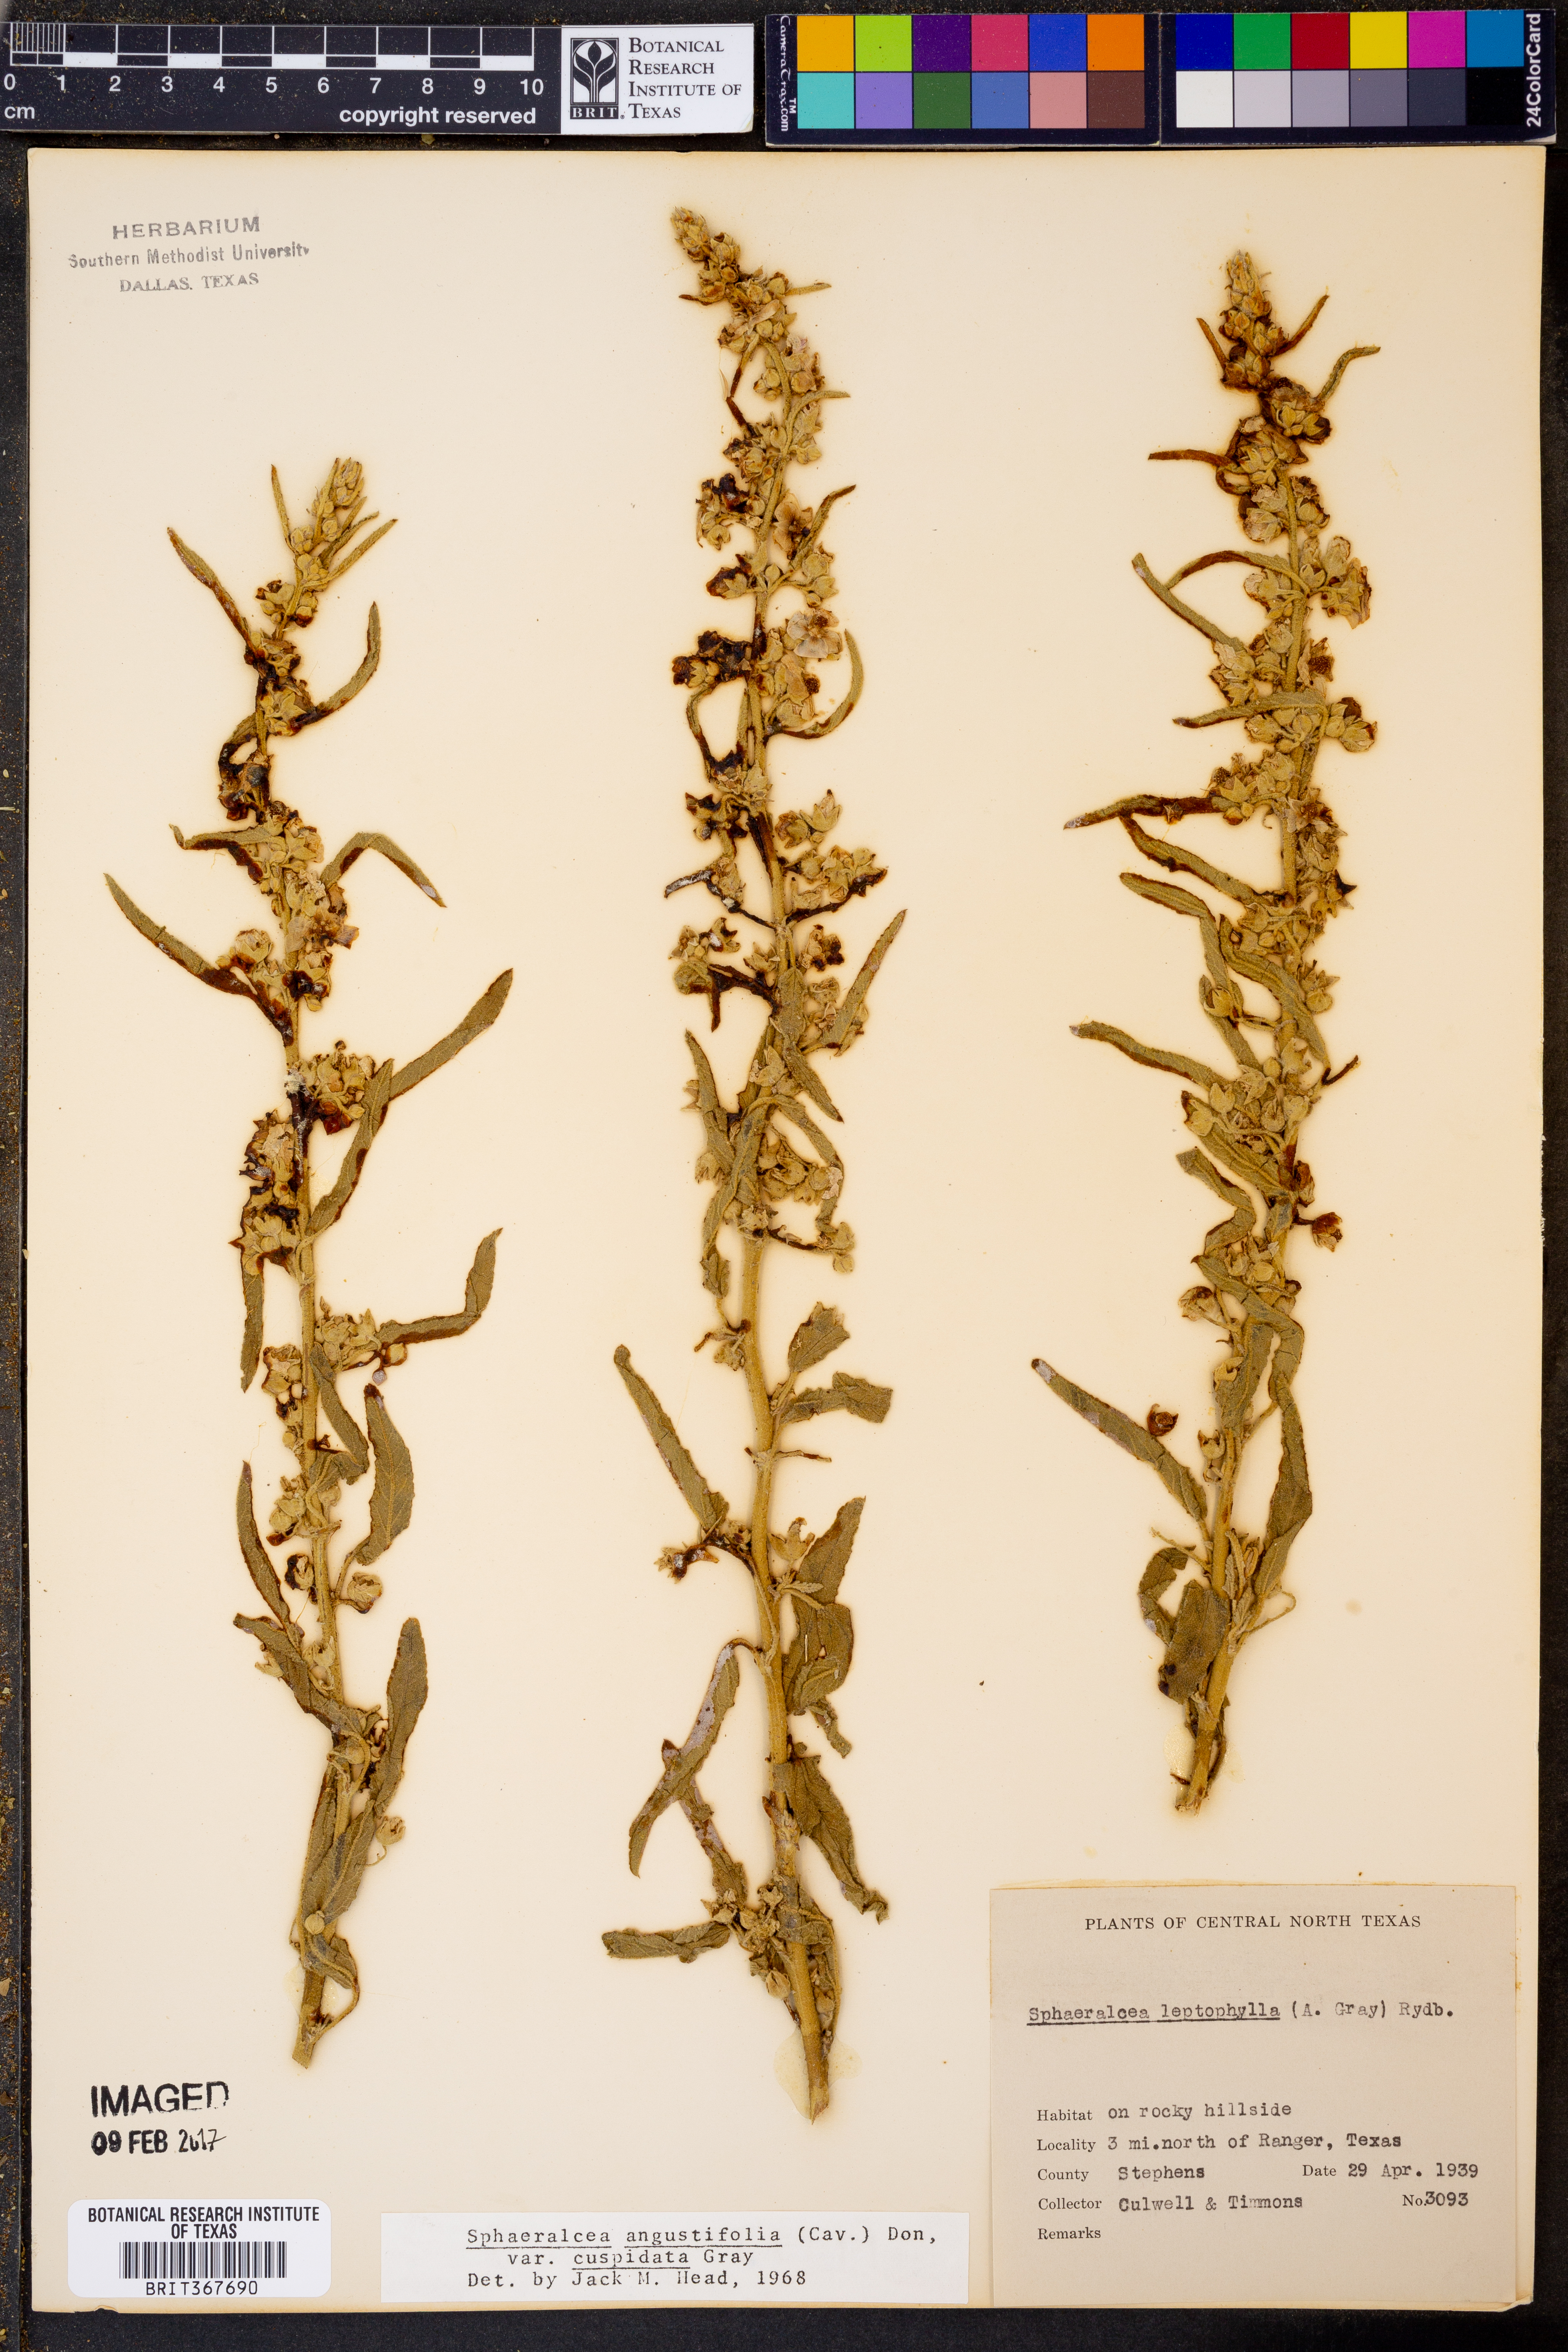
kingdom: Plantae
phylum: Tracheophyta
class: Magnoliopsida
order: Malvales
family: Malvaceae
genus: Sphaeralcea
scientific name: Sphaeralcea angustifolia
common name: Copper globe-mallow
